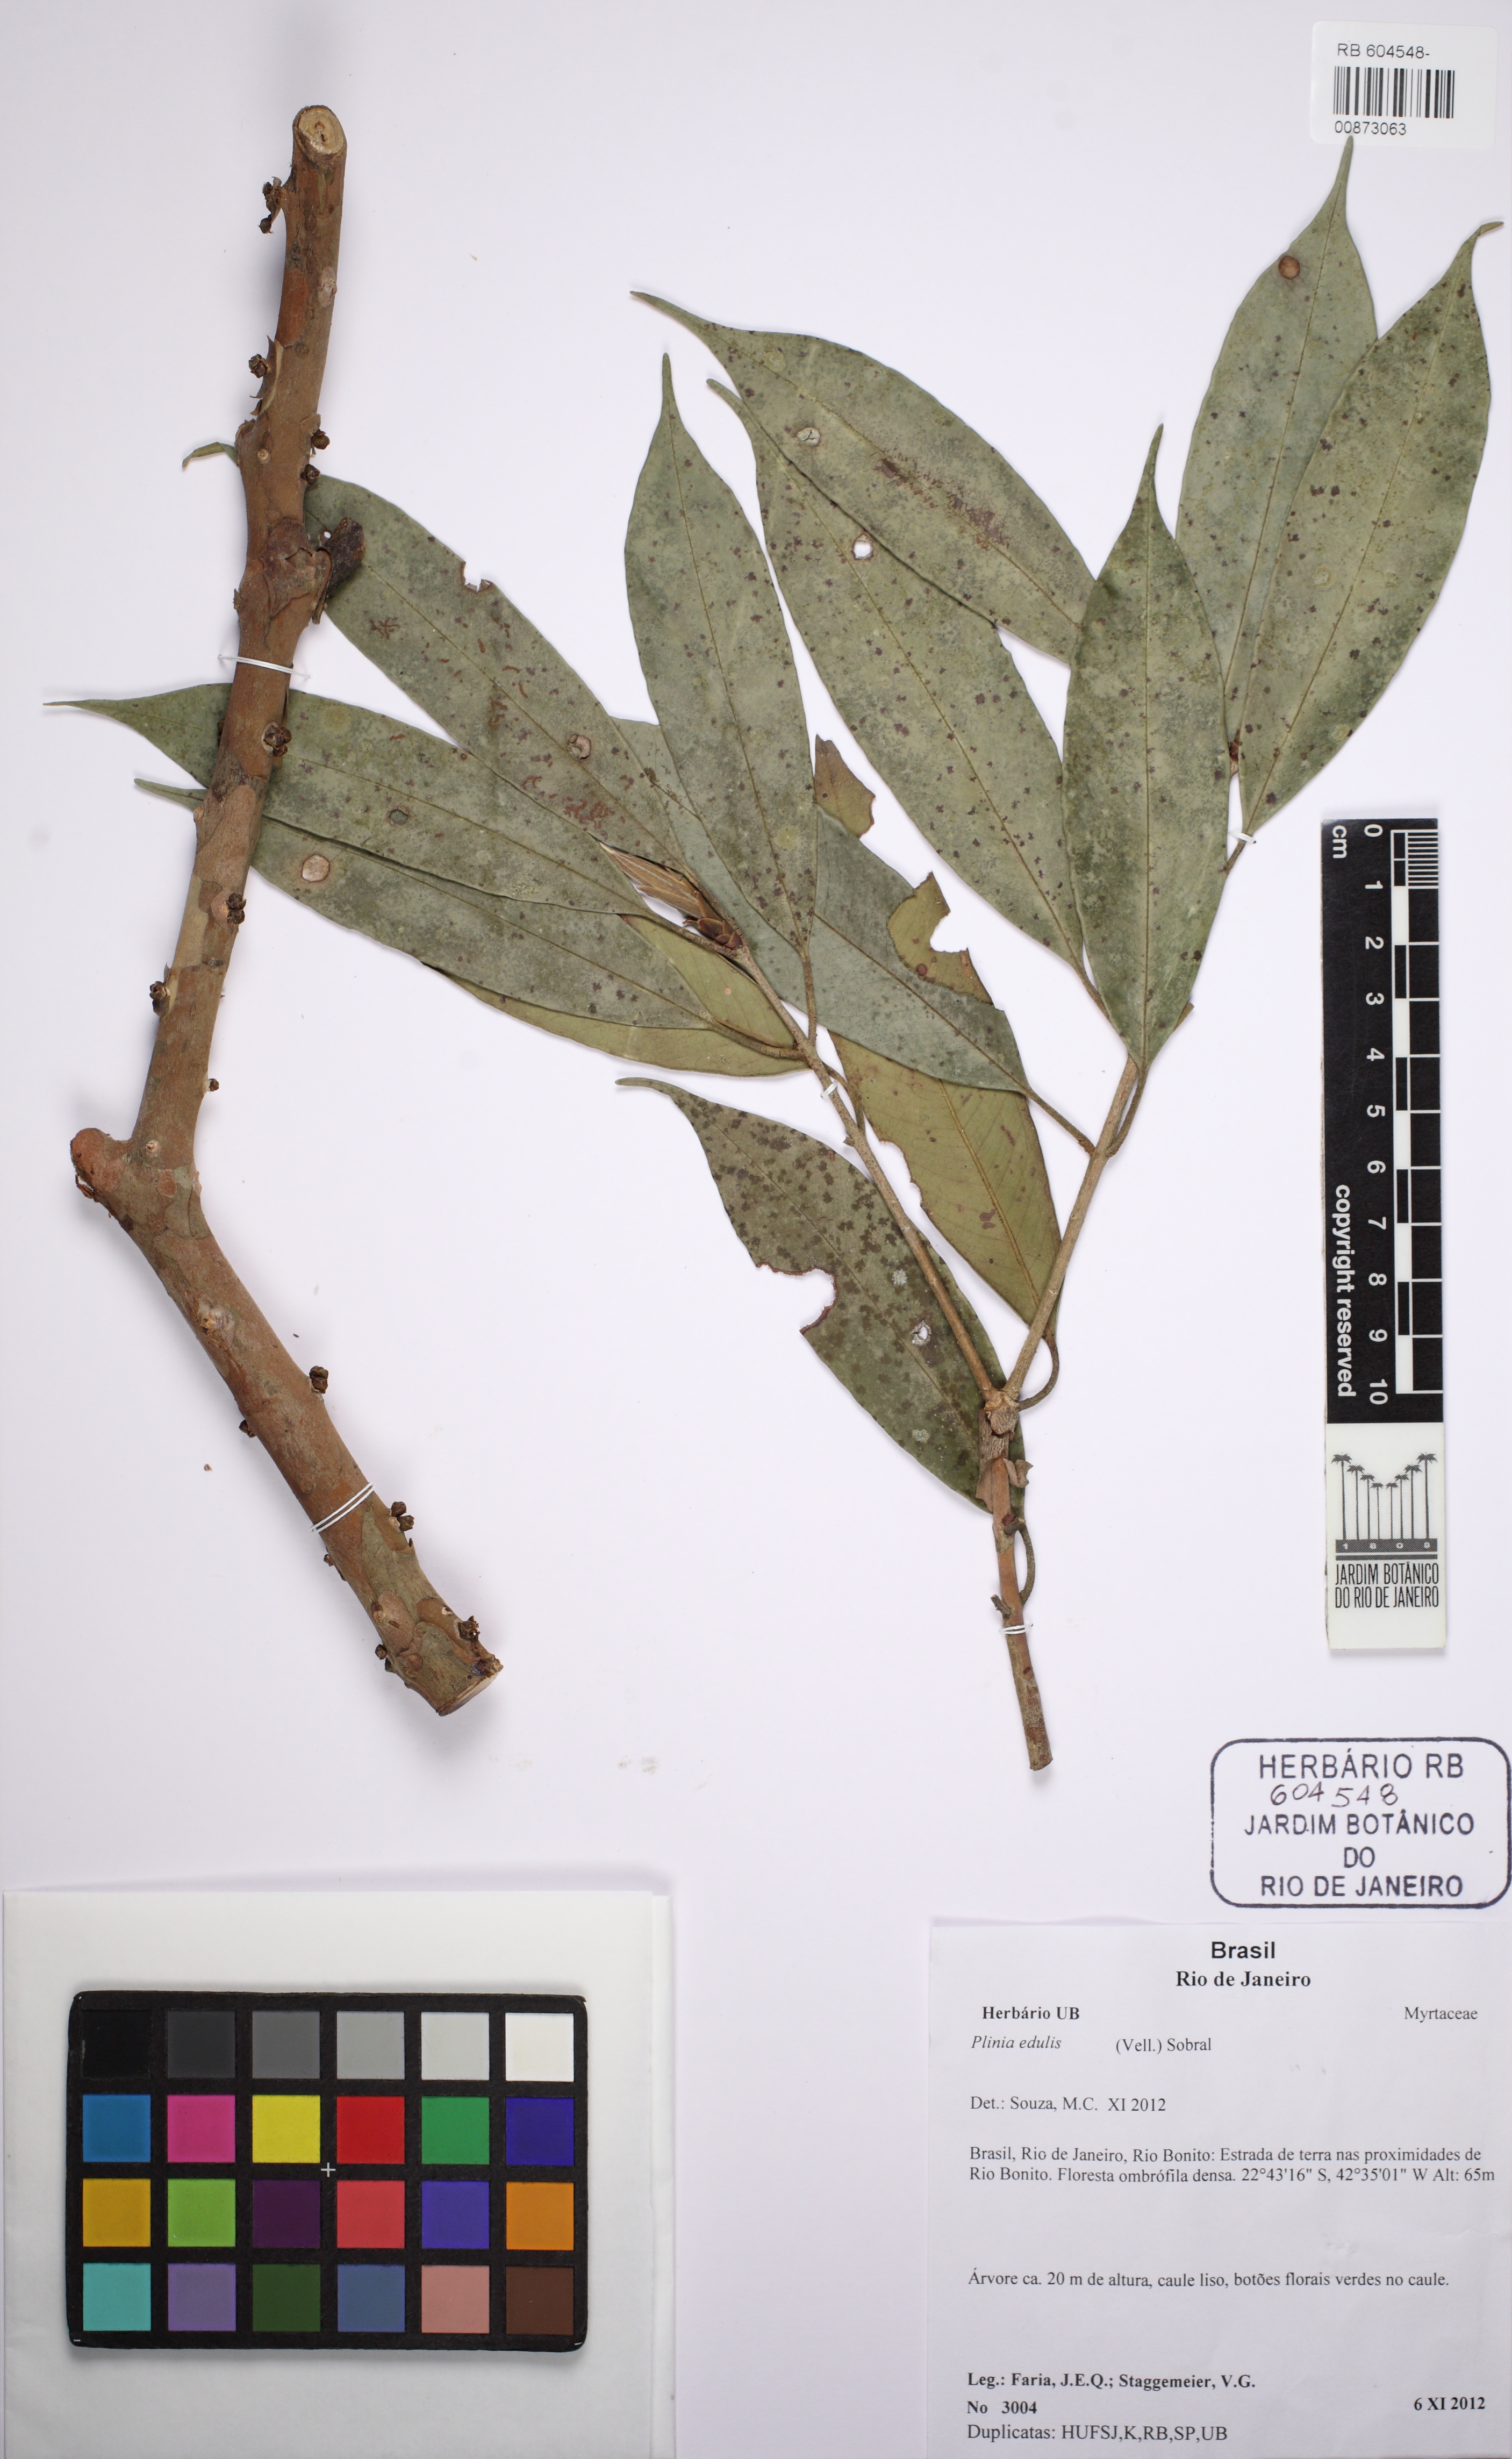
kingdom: Plantae
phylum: Tracheophyta
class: Magnoliopsida
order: Myrtales
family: Myrtaceae
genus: Plinia
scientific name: Plinia edulis
